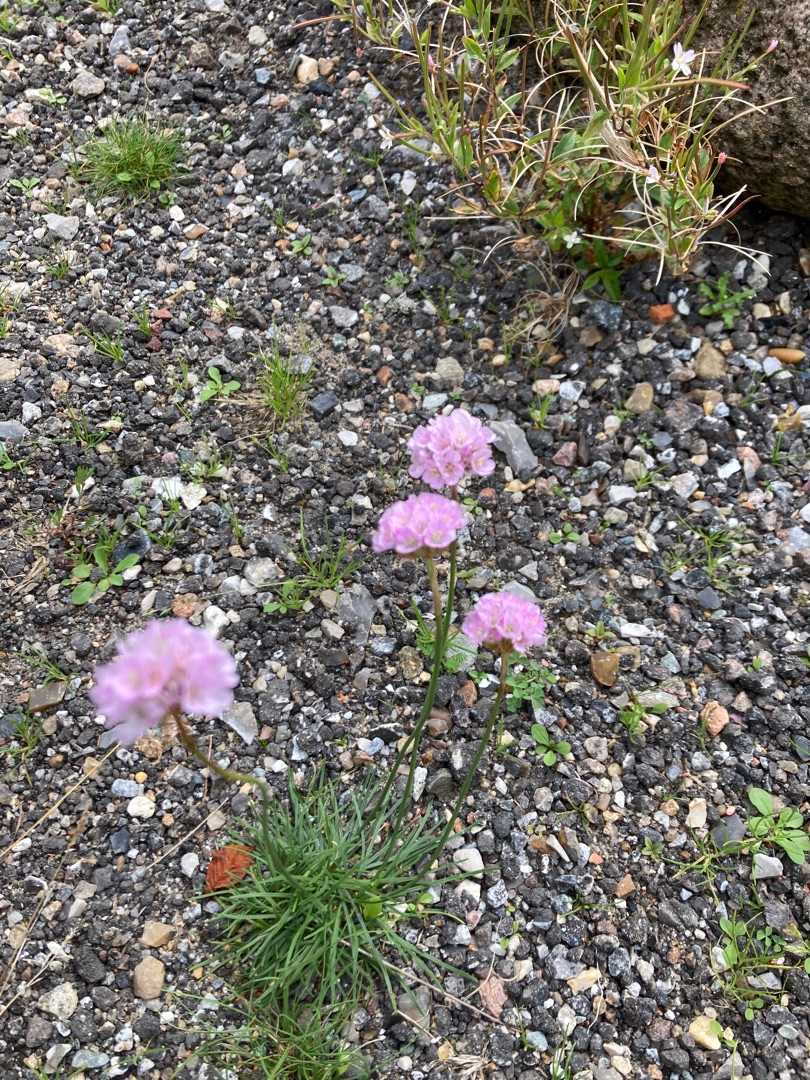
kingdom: Plantae
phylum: Tracheophyta
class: Magnoliopsida
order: Caryophyllales
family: Plumbaginaceae
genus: Armeria
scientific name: Armeria maritima
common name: Engelskgræs
